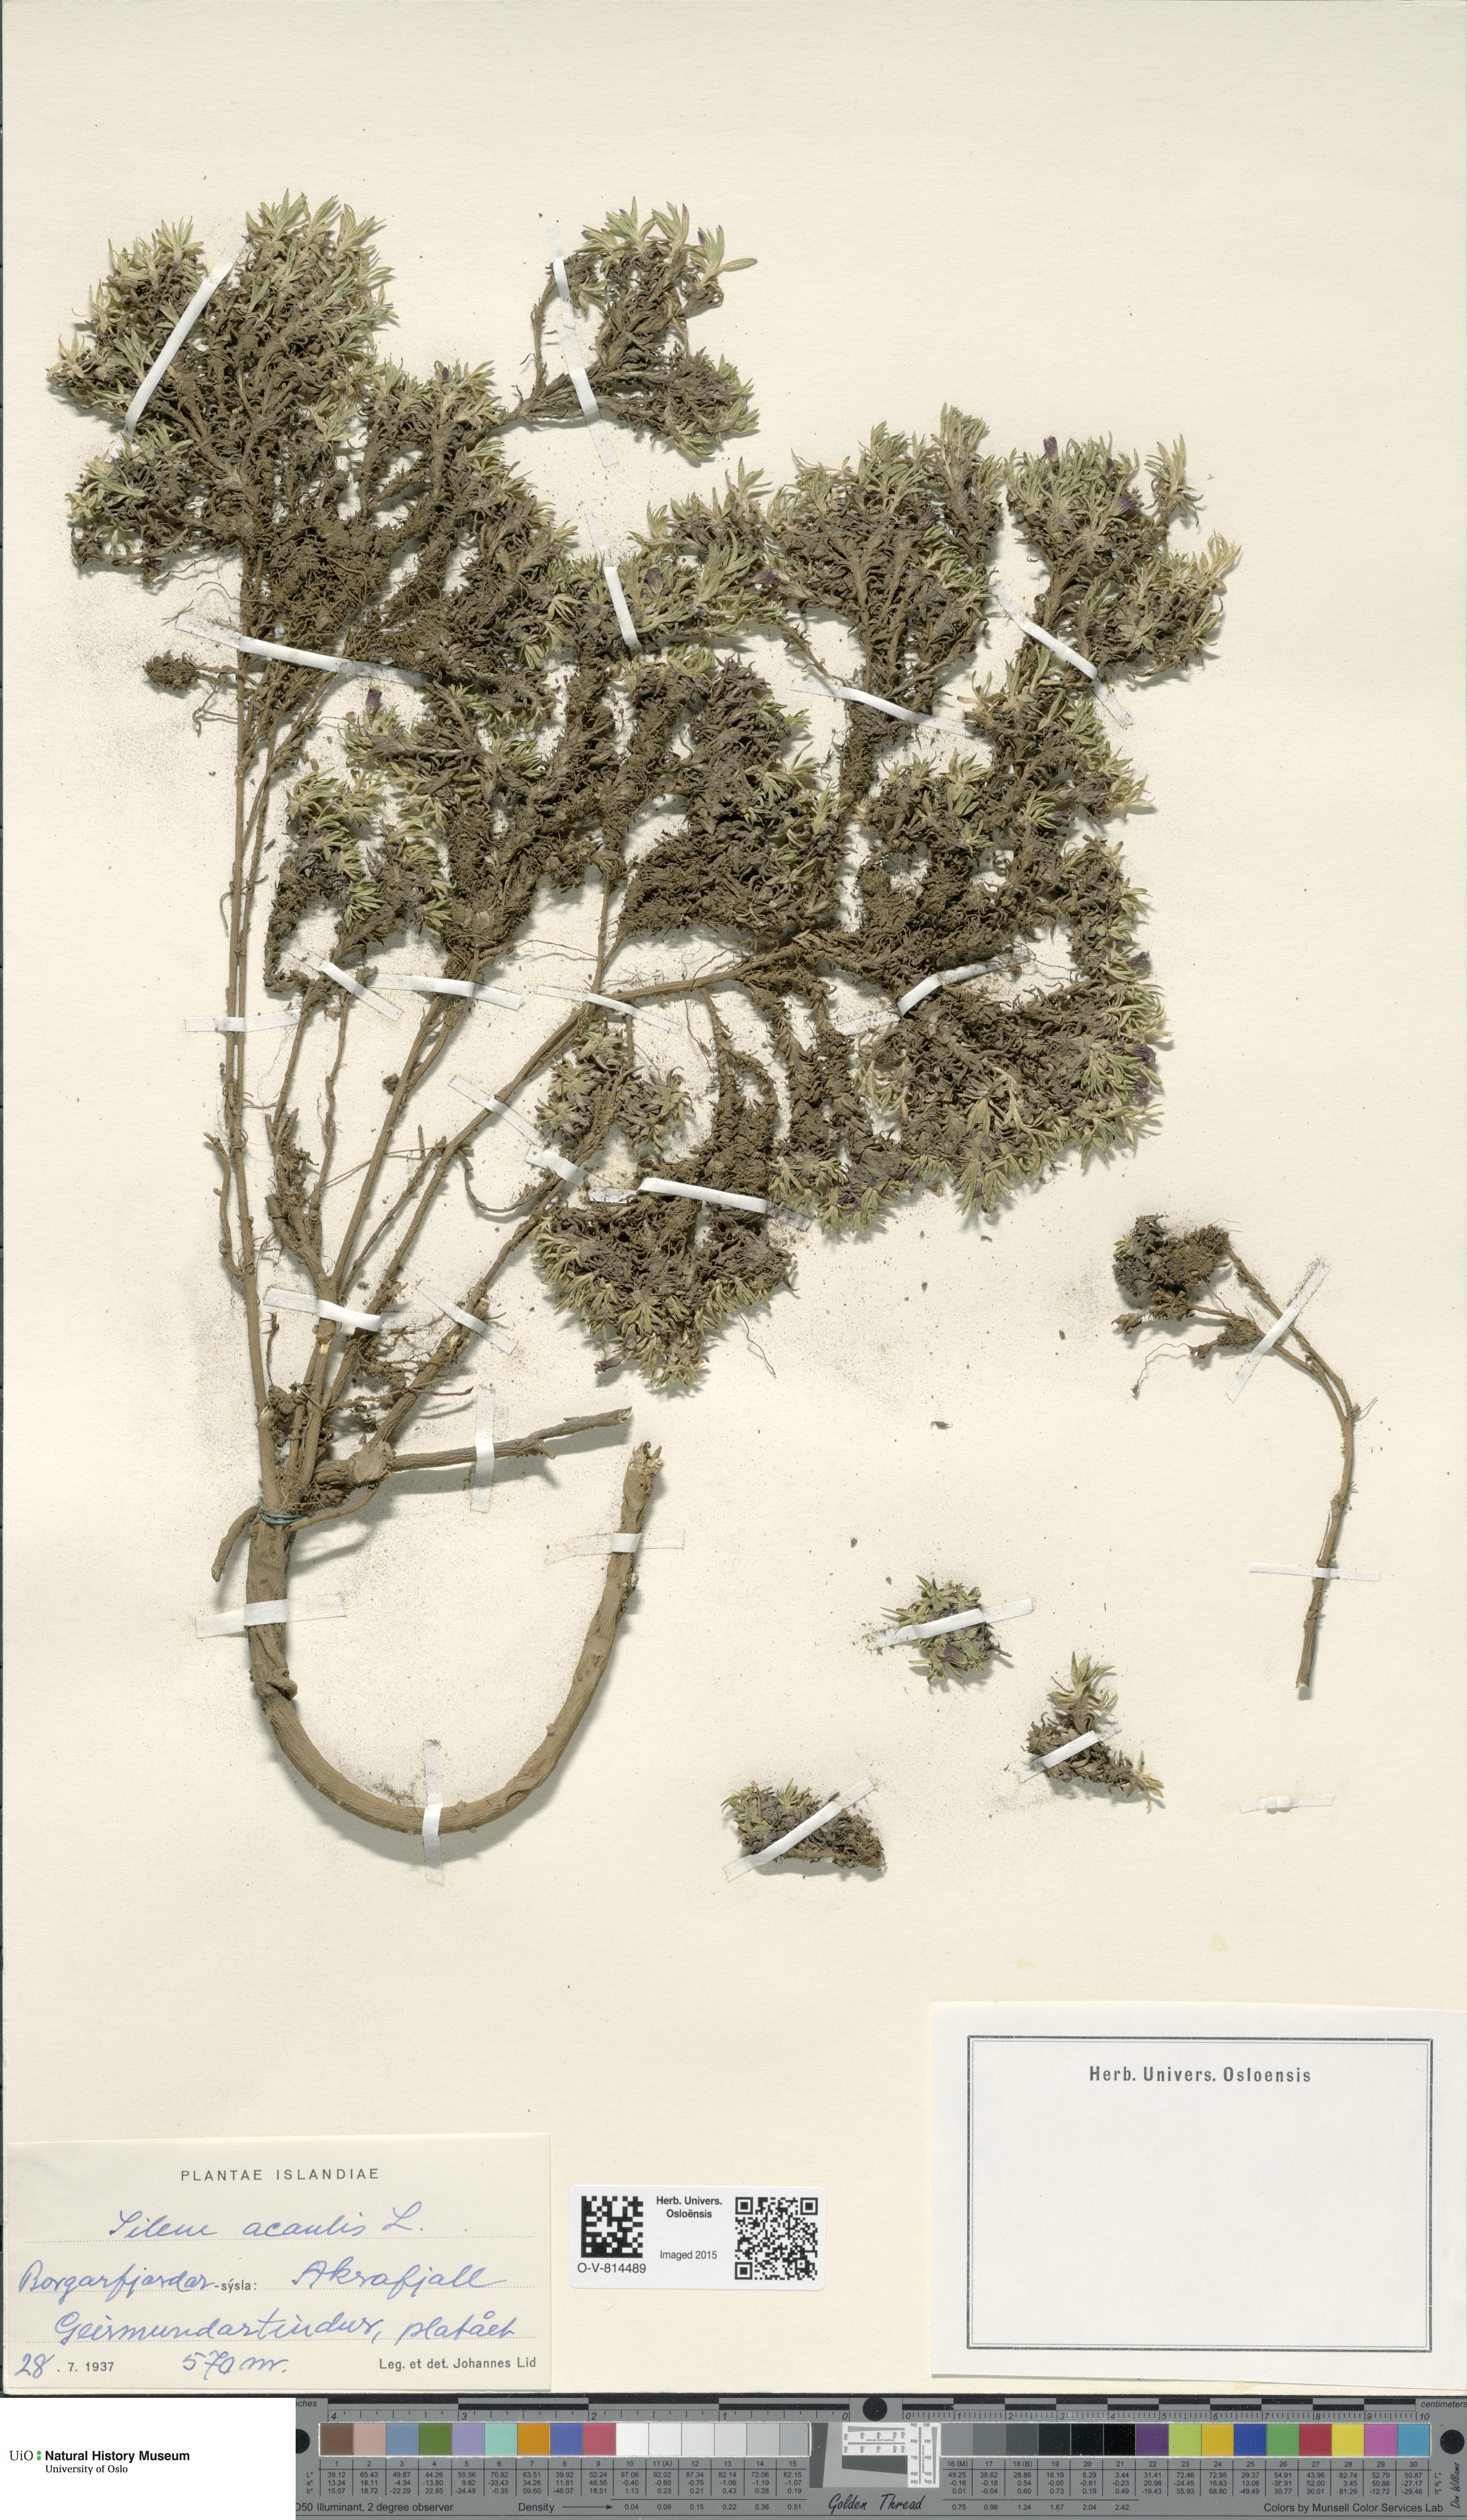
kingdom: Plantae
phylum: Tracheophyta
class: Magnoliopsida
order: Caryophyllales
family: Caryophyllaceae
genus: Silene
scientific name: Silene acaulis
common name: Moss campion
